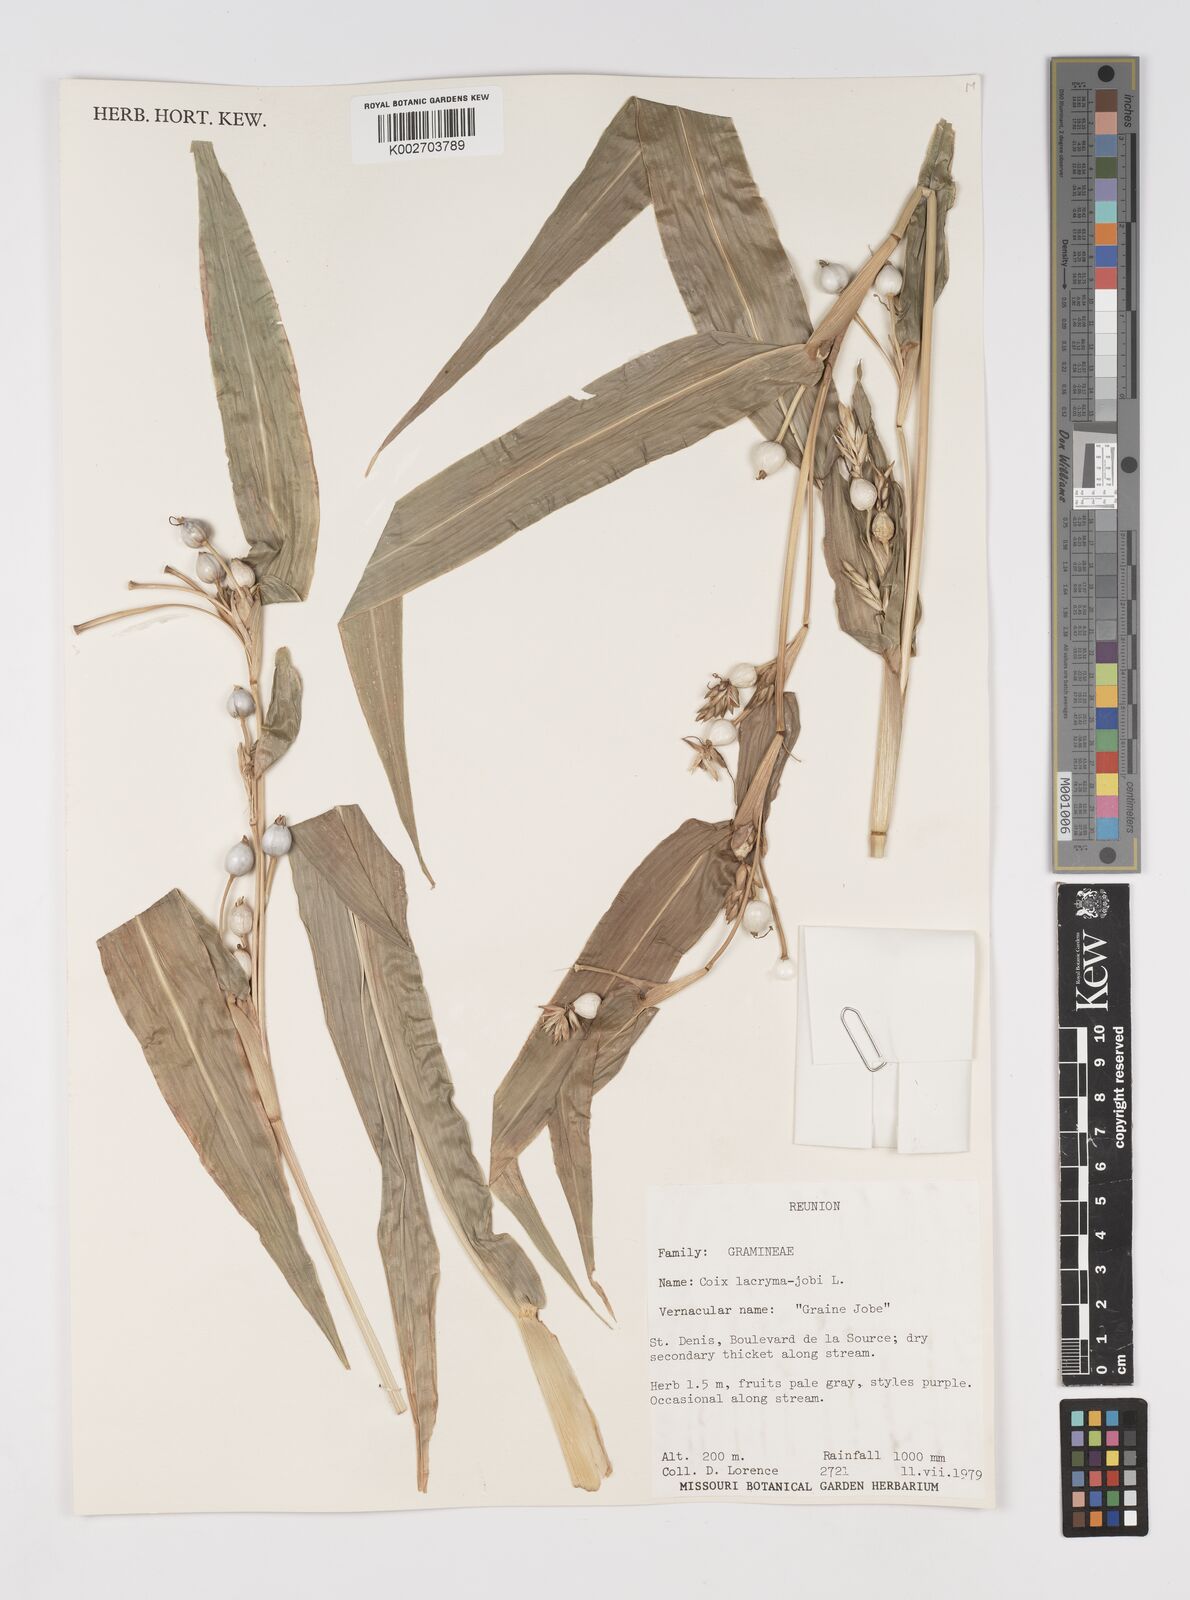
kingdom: Plantae
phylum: Tracheophyta
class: Liliopsida
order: Poales
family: Poaceae
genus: Coix
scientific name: Coix lacryma-jobi
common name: Job's tears
